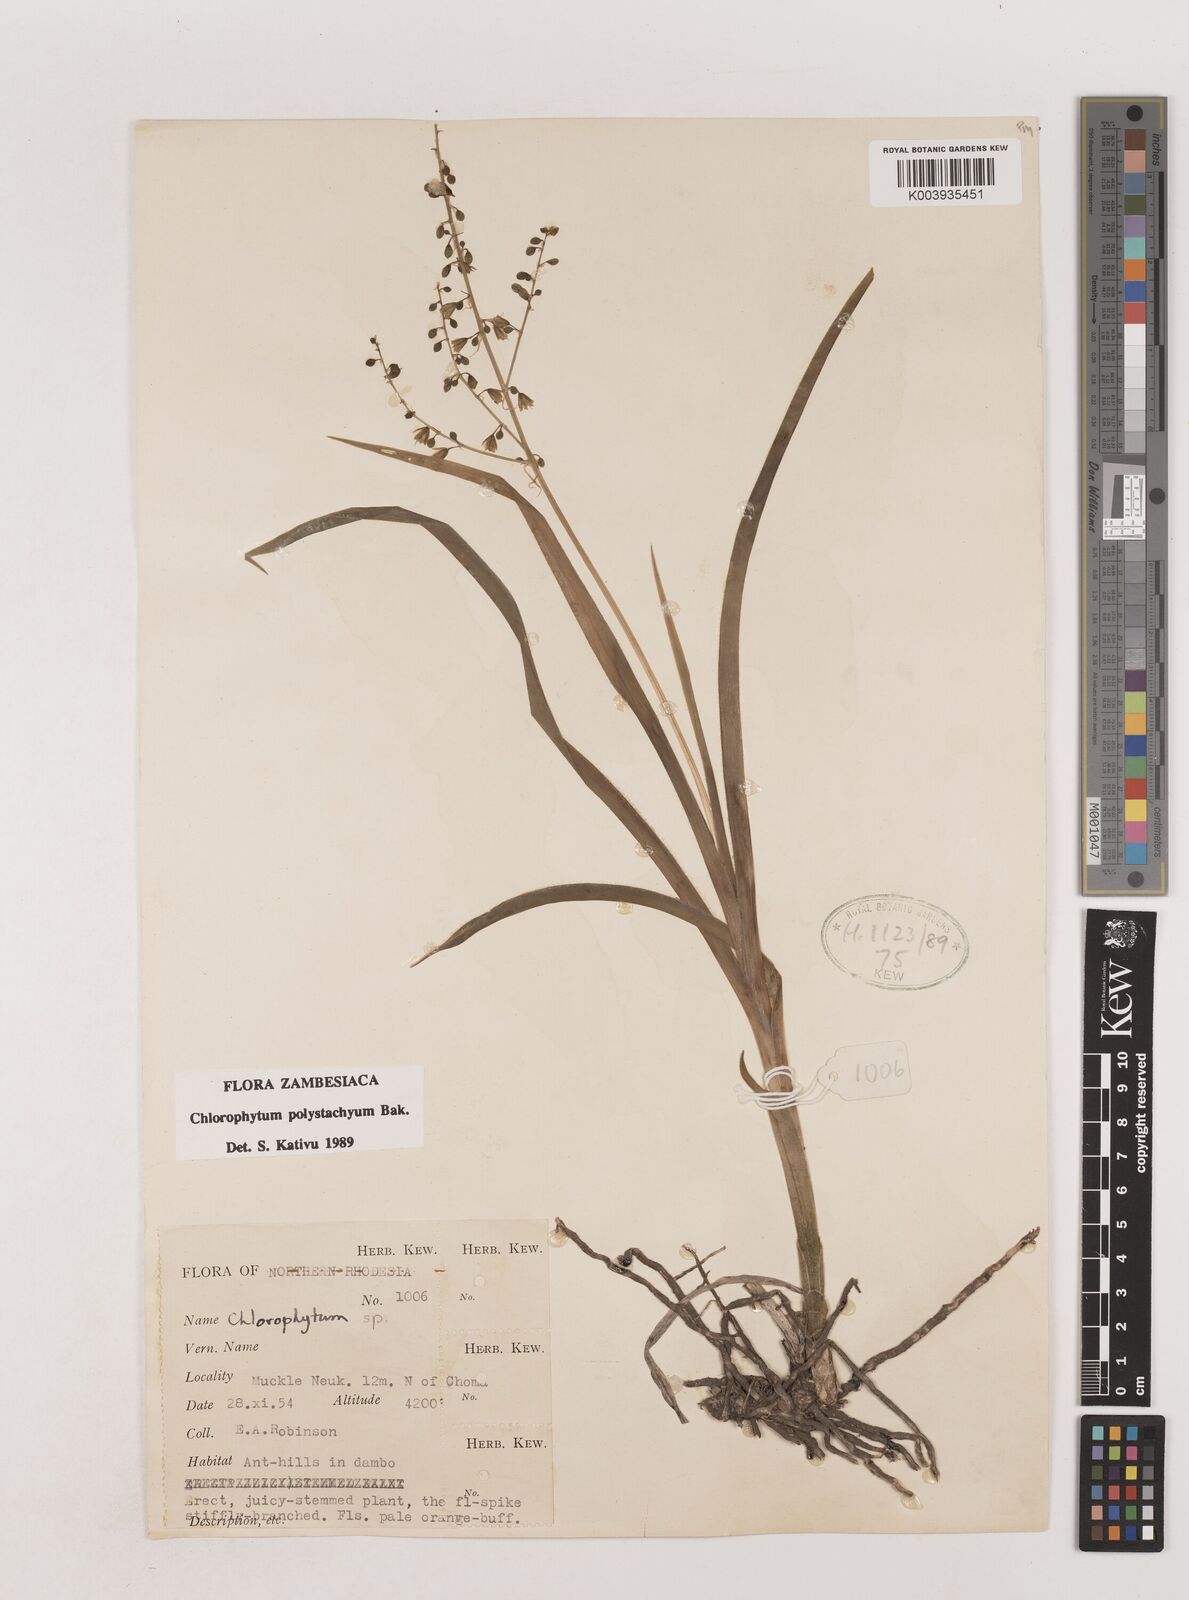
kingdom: Plantae
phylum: Tracheophyta
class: Liliopsida
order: Asparagales
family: Asparagaceae
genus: Chlorophytum
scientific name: Chlorophytum polystachys
